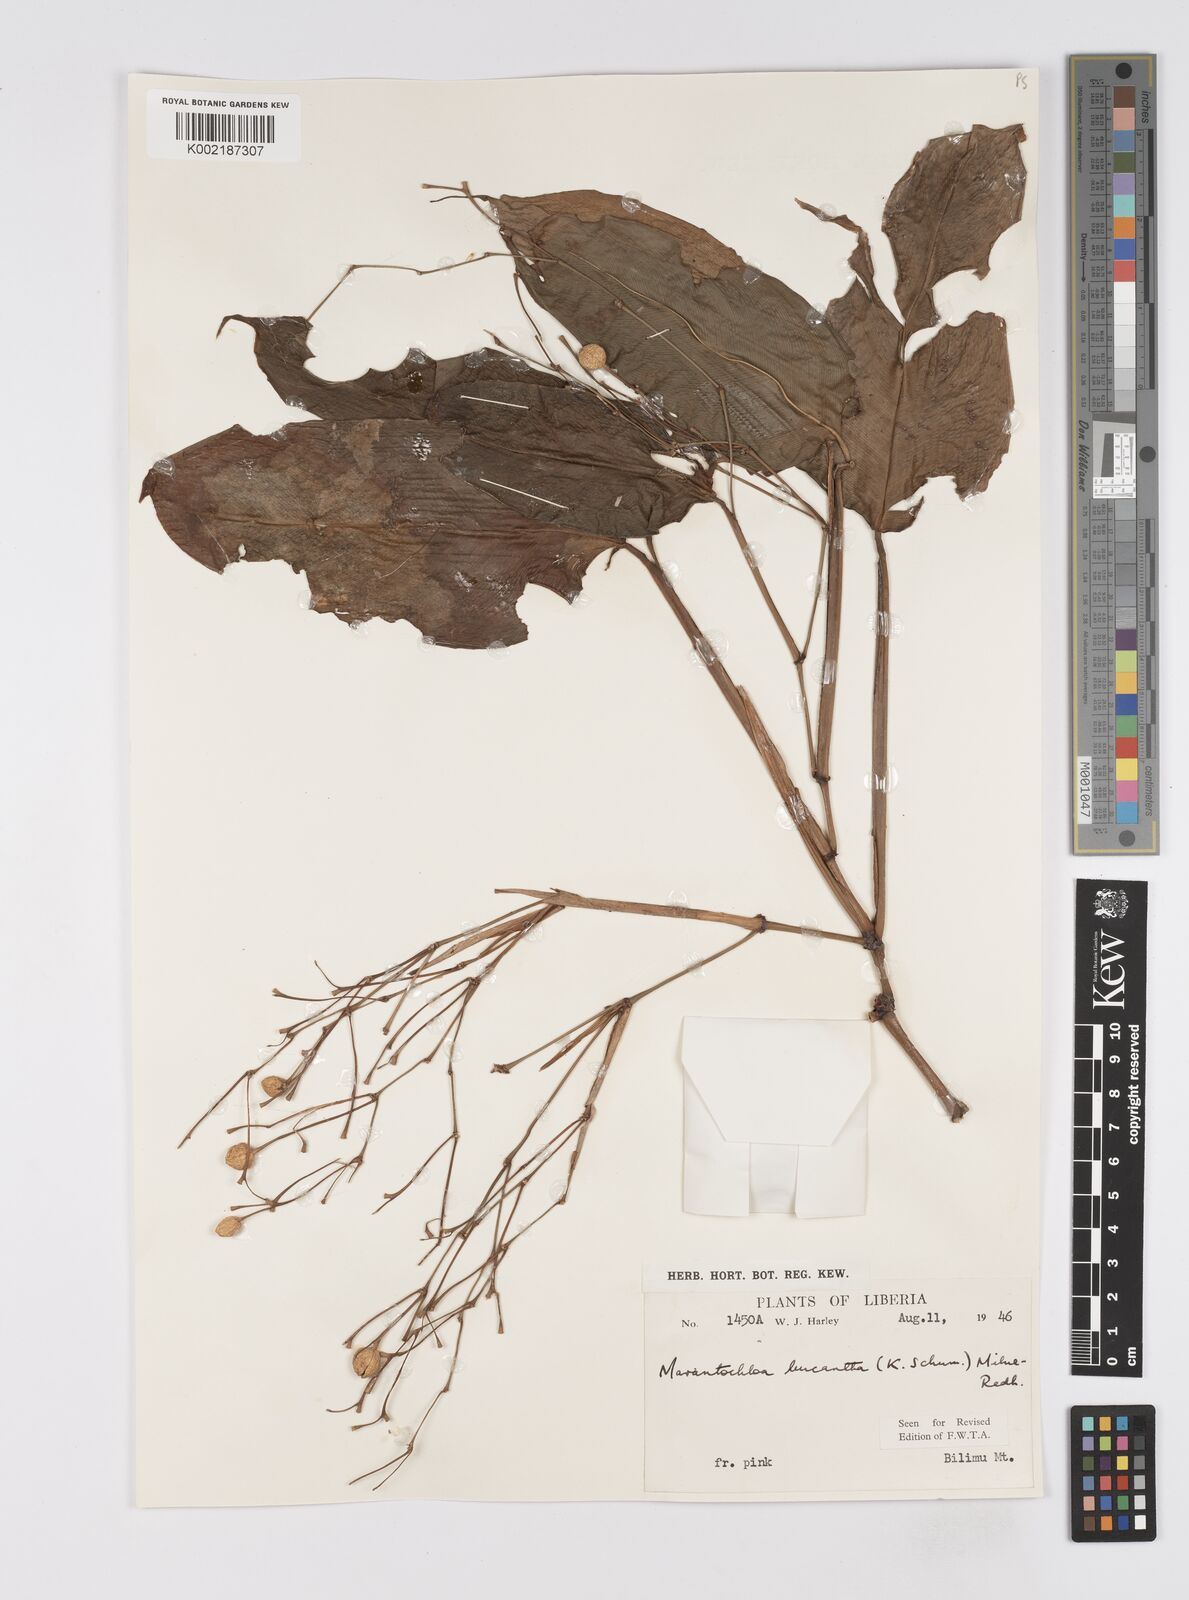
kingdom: Plantae
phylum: Tracheophyta
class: Liliopsida
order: Zingiberales
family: Marantaceae
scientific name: Marantaceae
